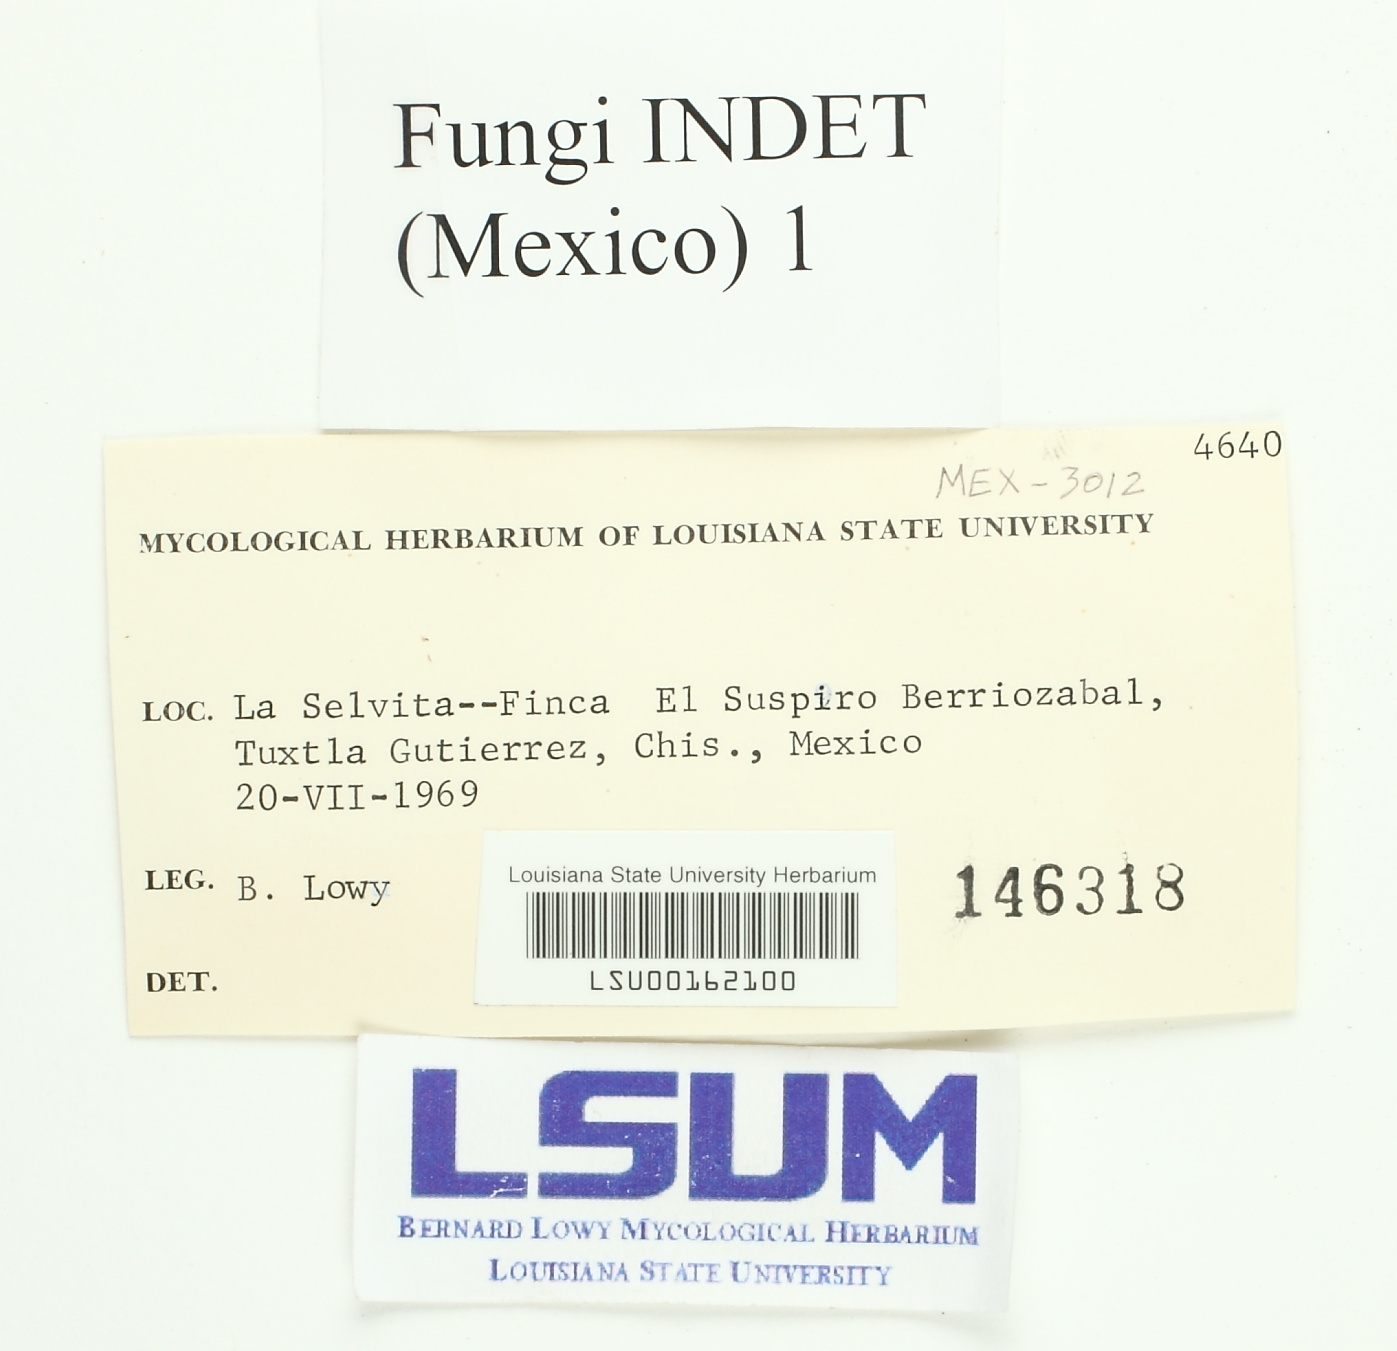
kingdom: Fungi
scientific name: Fungi
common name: Fungi
